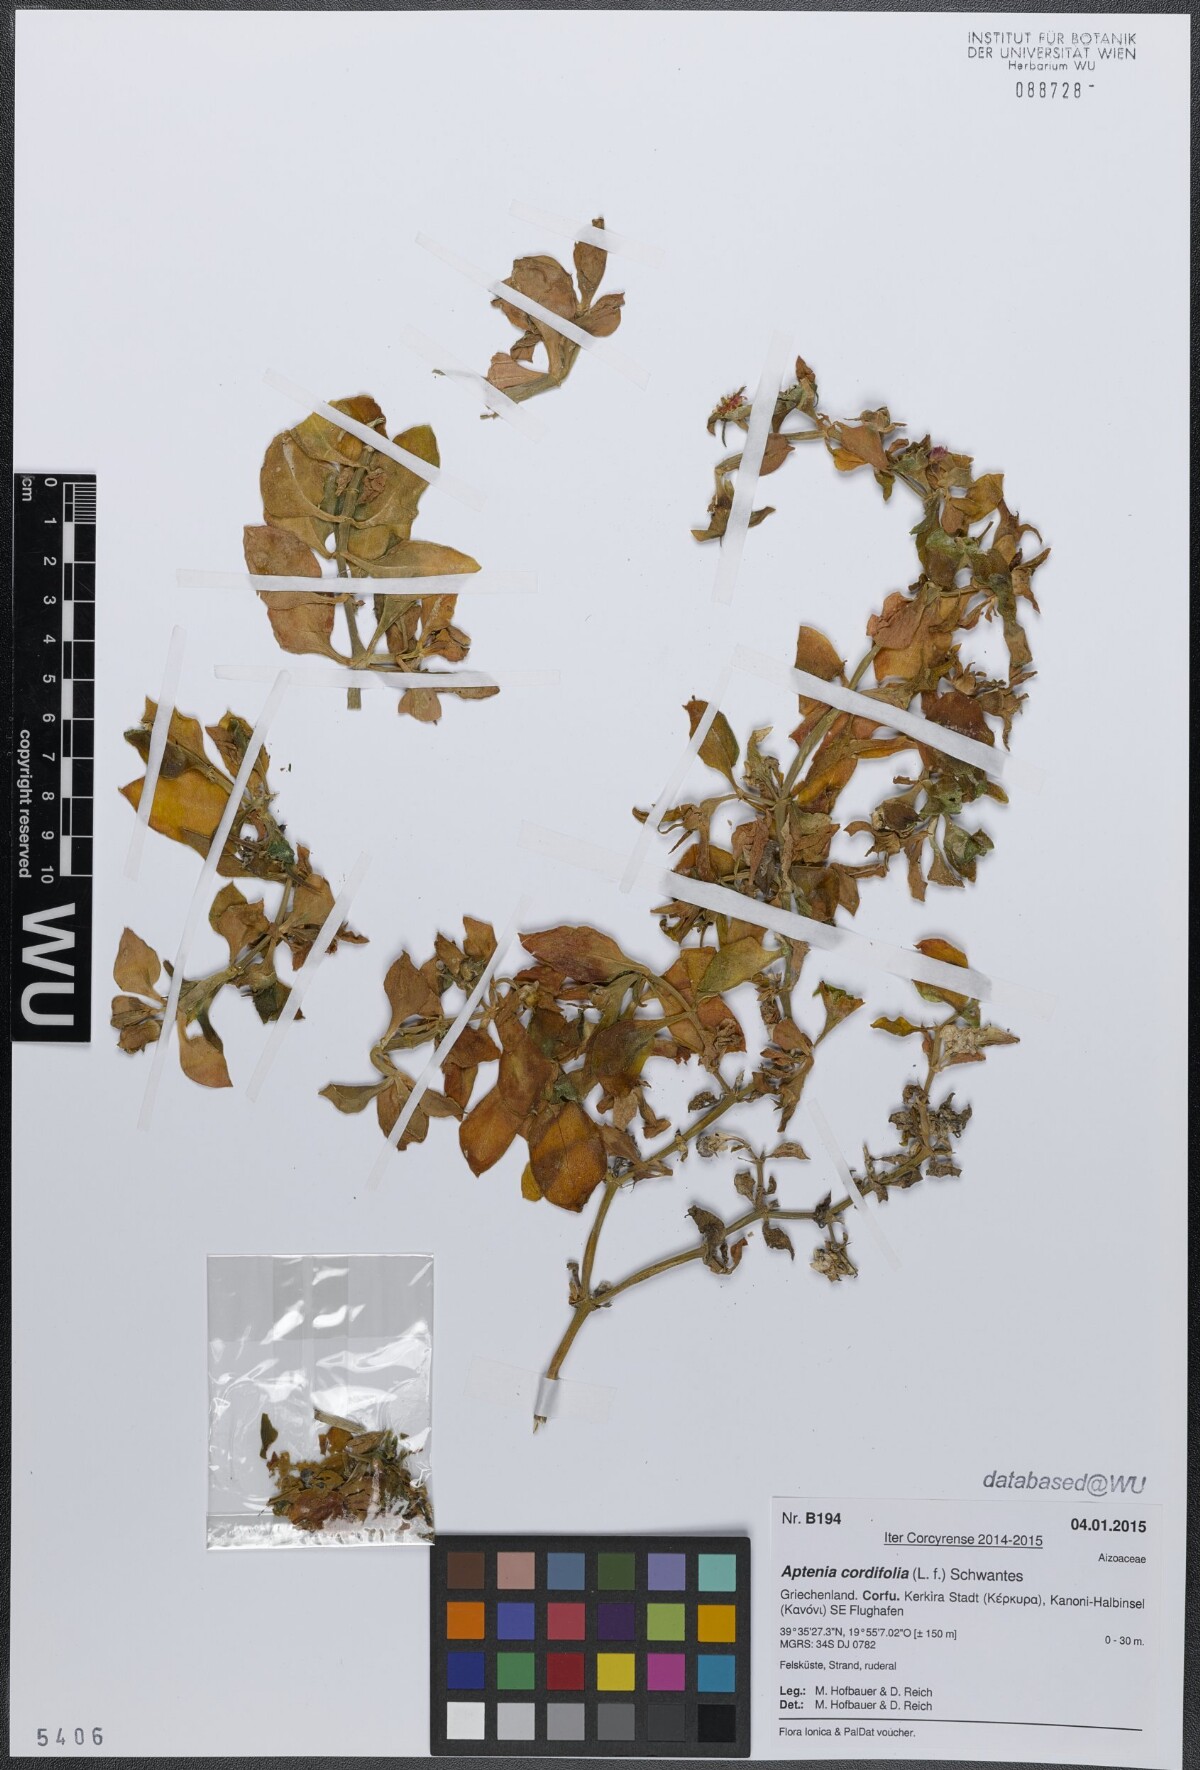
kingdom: Plantae
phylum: Tracheophyta
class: Magnoliopsida
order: Caryophyllales
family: Aizoaceae
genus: Mesembryanthemum
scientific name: Mesembryanthemum cordifolium
